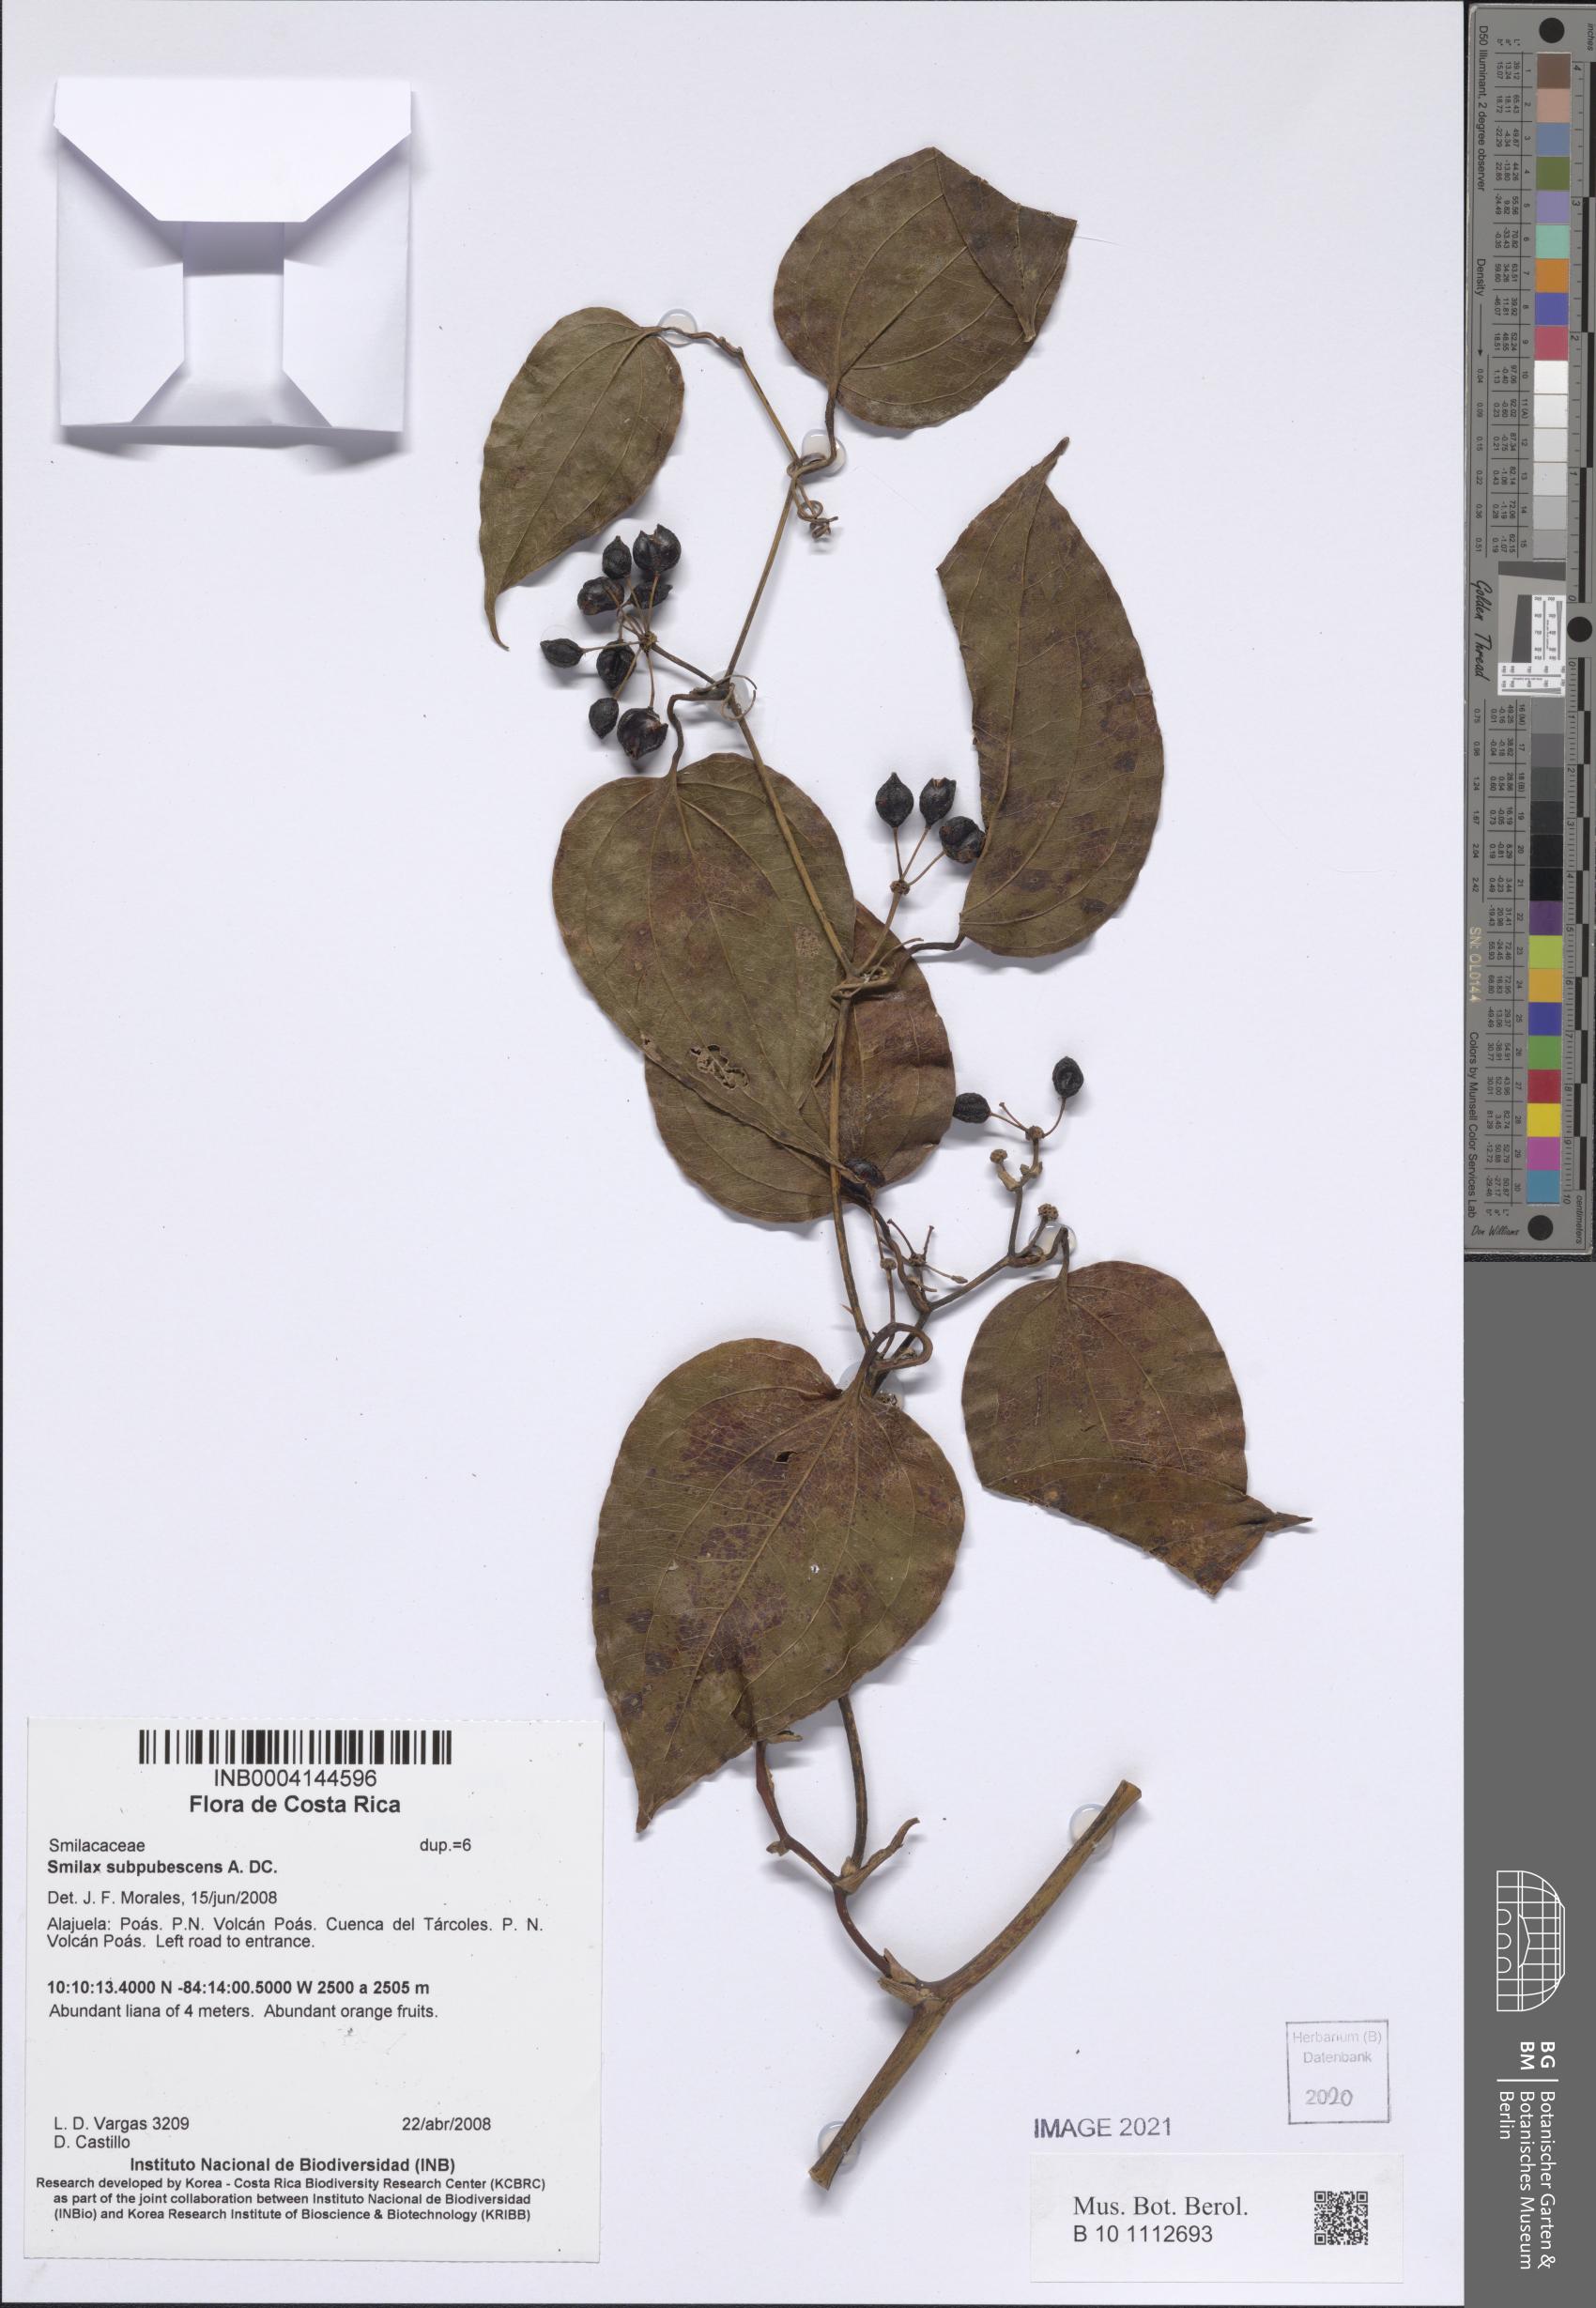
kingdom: Plantae
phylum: Tracheophyta
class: Liliopsida
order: Liliales
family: Smilacaceae
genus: Smilax
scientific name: Smilax subpubescens
